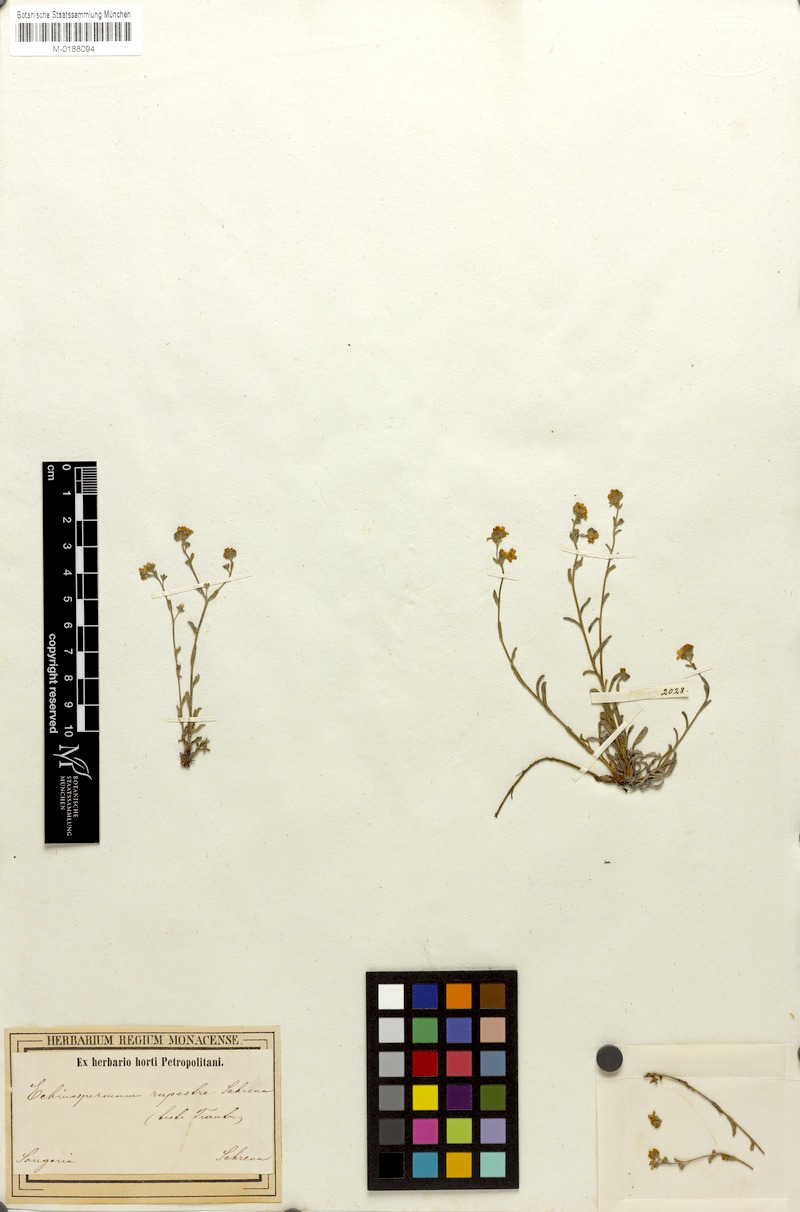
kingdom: Plantae
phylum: Tracheophyta
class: Magnoliopsida
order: Boraginales
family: Boraginaceae
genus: Lappula
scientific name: Lappula microcarpa
